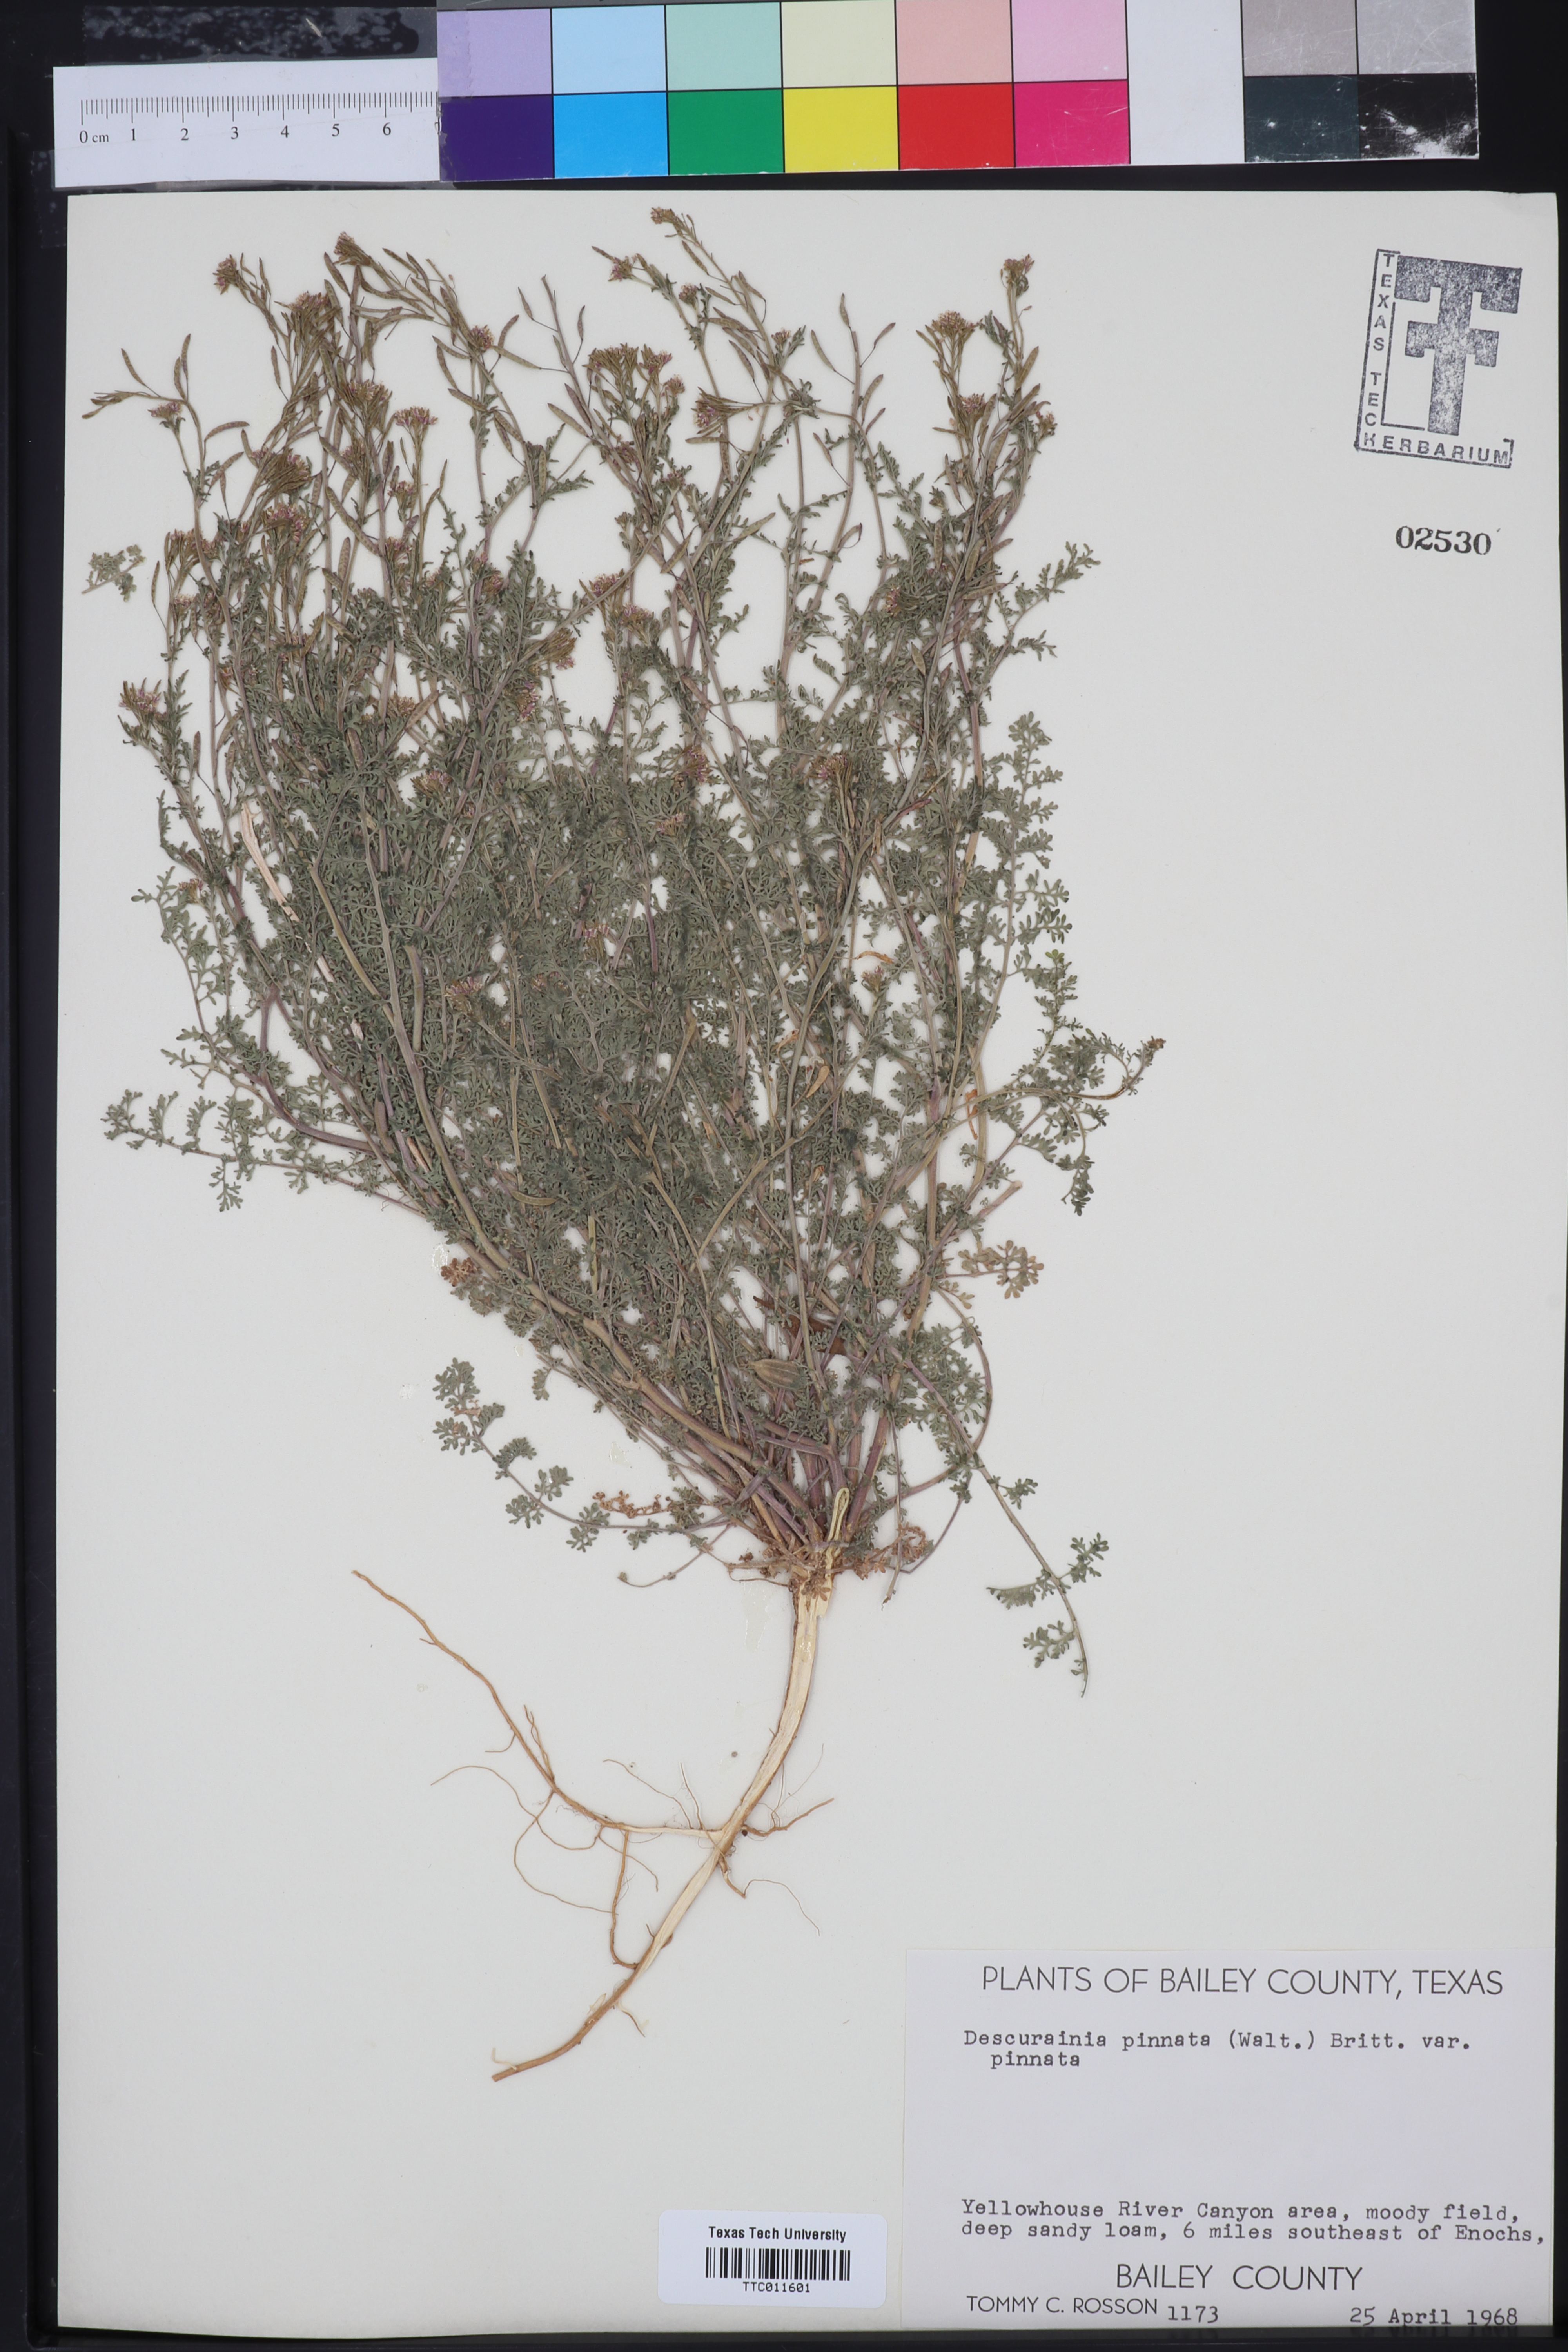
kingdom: Plantae
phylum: Tracheophyta
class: Magnoliopsida
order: Brassicales
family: Brassicaceae
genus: Descurainia
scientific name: Descurainia pinnata
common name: Western tansy mustard
